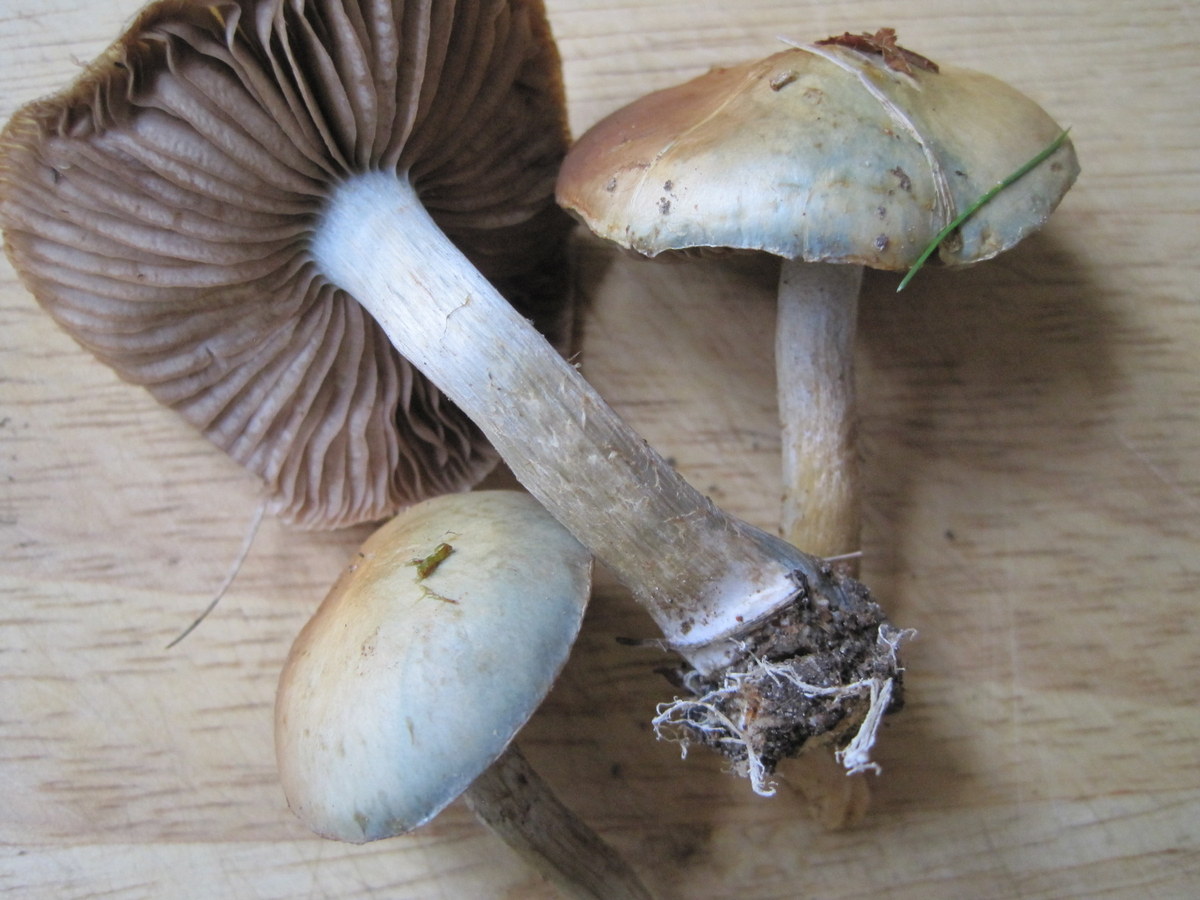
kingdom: Fungi
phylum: Basidiomycota
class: Agaricomycetes
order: Agaricales
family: Strophariaceae
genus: Stropharia
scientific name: Stropharia cyanea
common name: blågrøn bredblad
